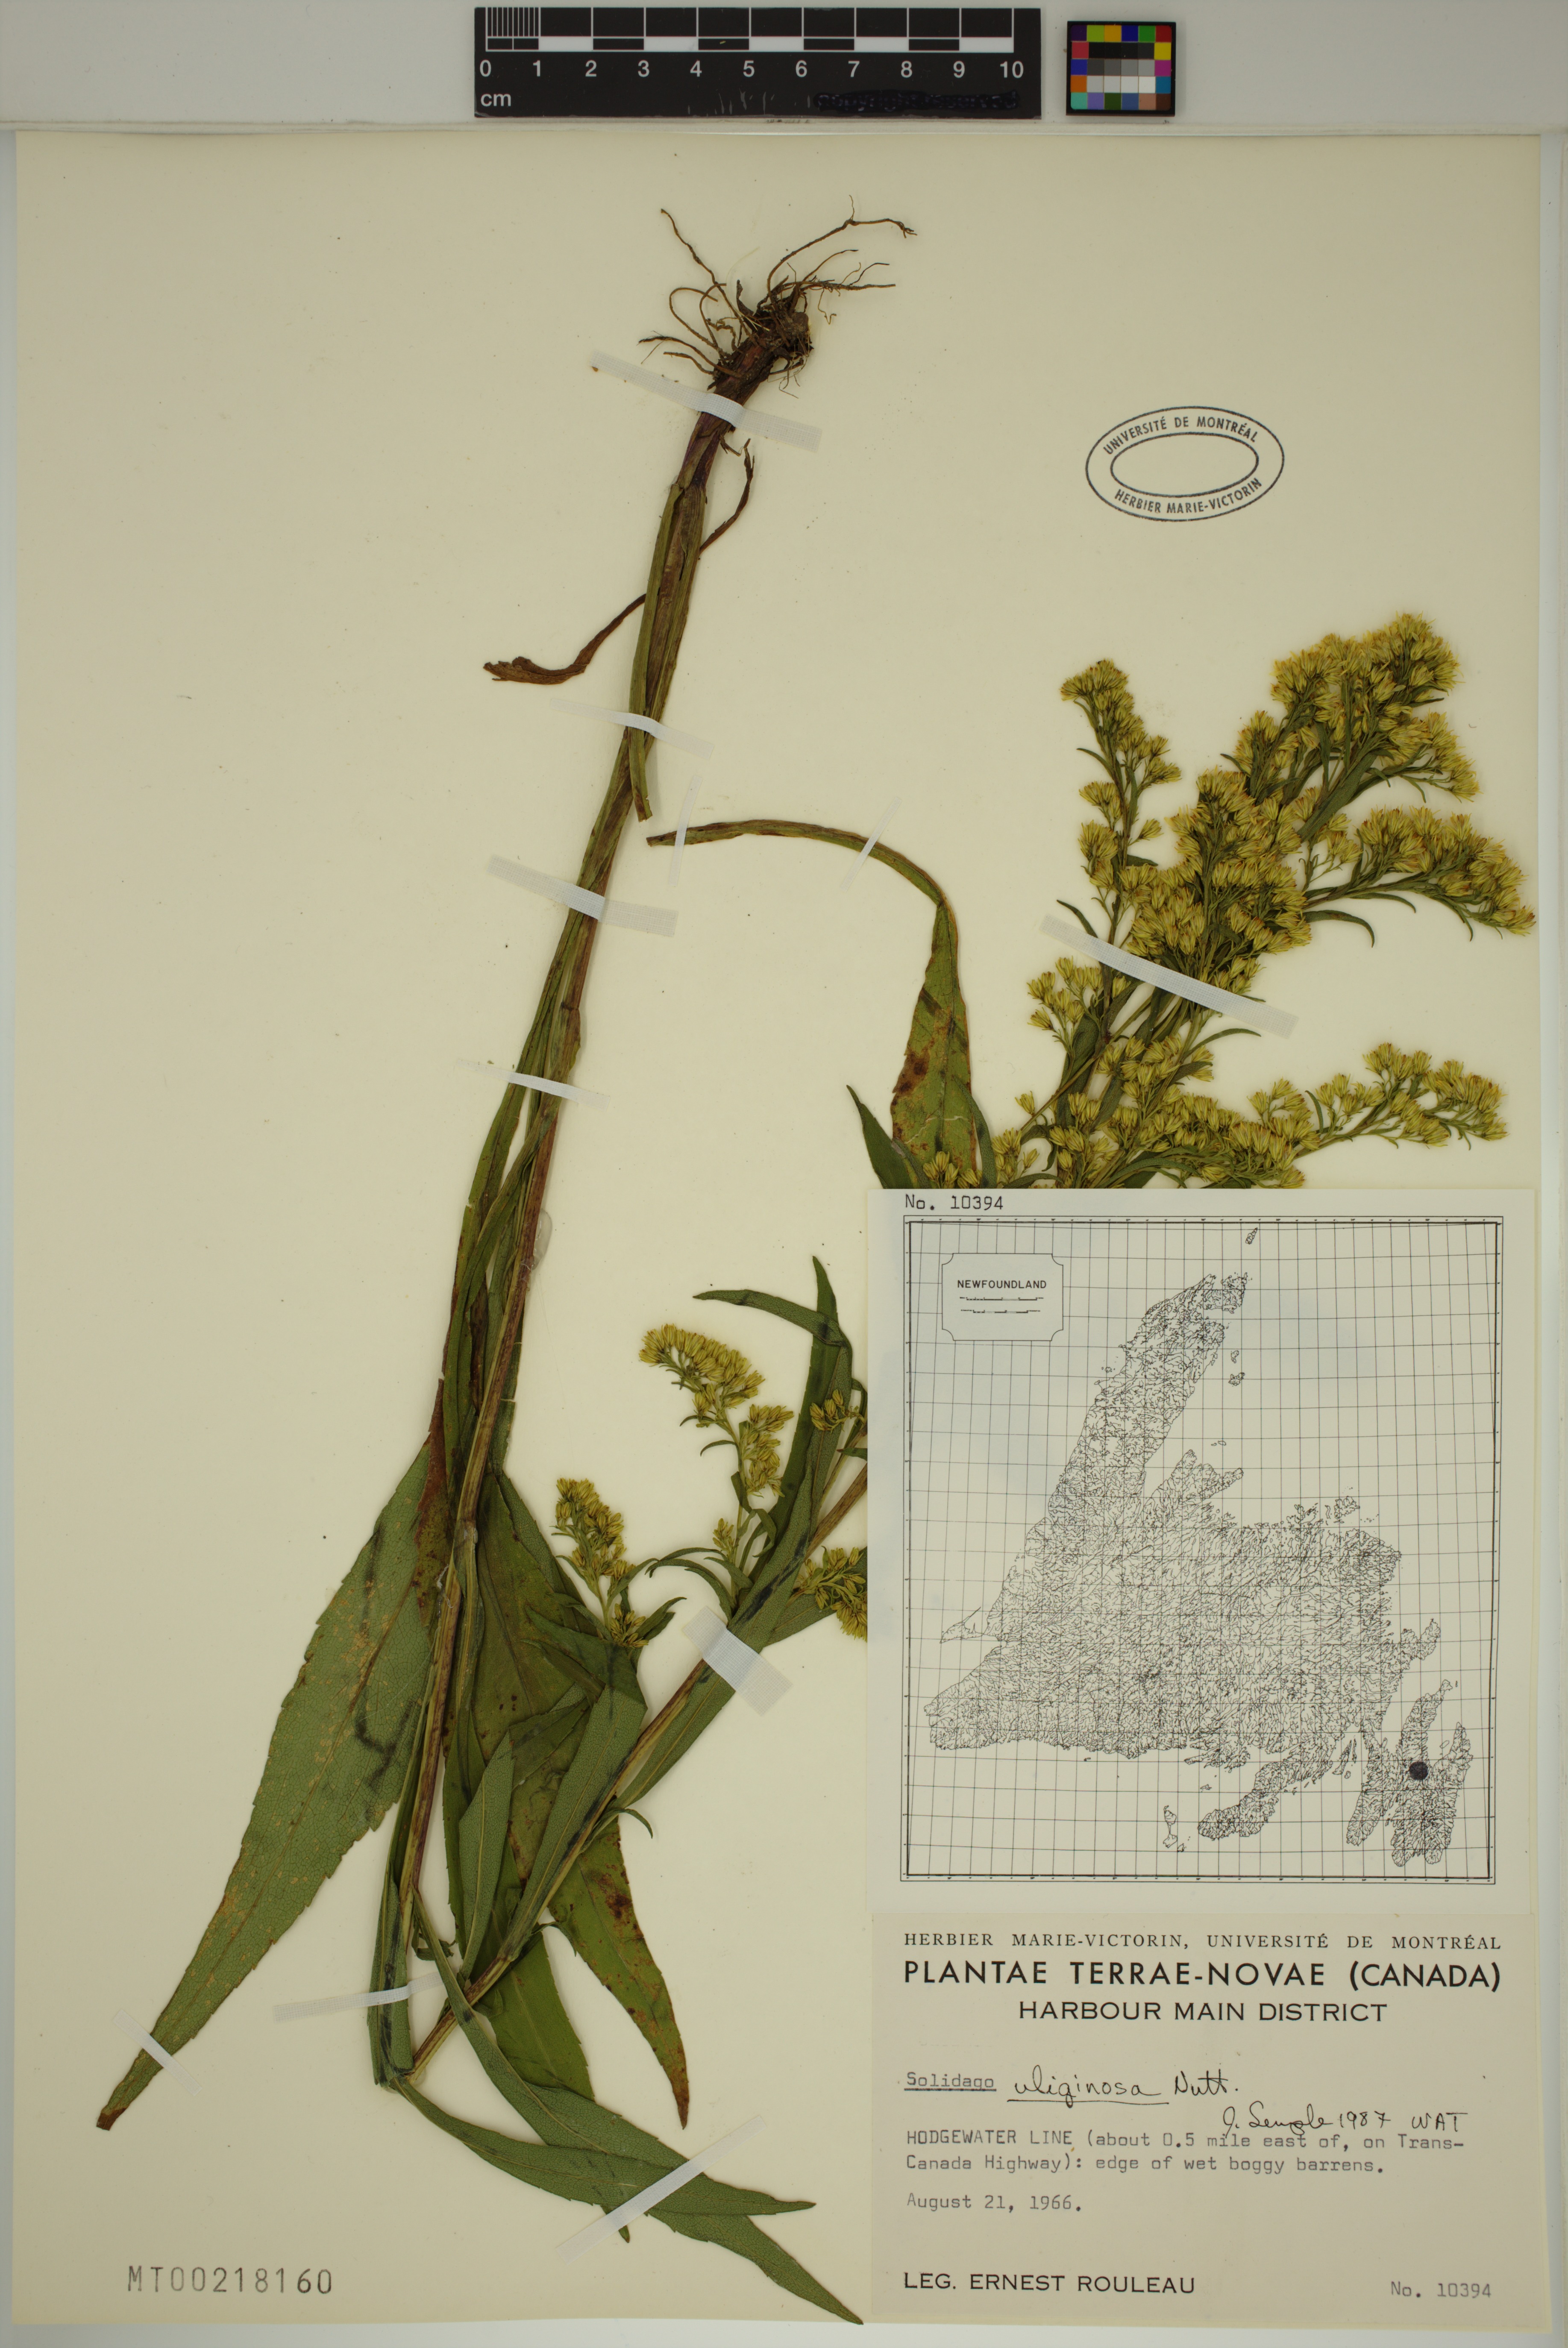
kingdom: Plantae
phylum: Tracheophyta
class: Magnoliopsida
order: Asterales
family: Asteraceae
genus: Solidago
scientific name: Solidago uliginosa
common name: Bog goldenrod
